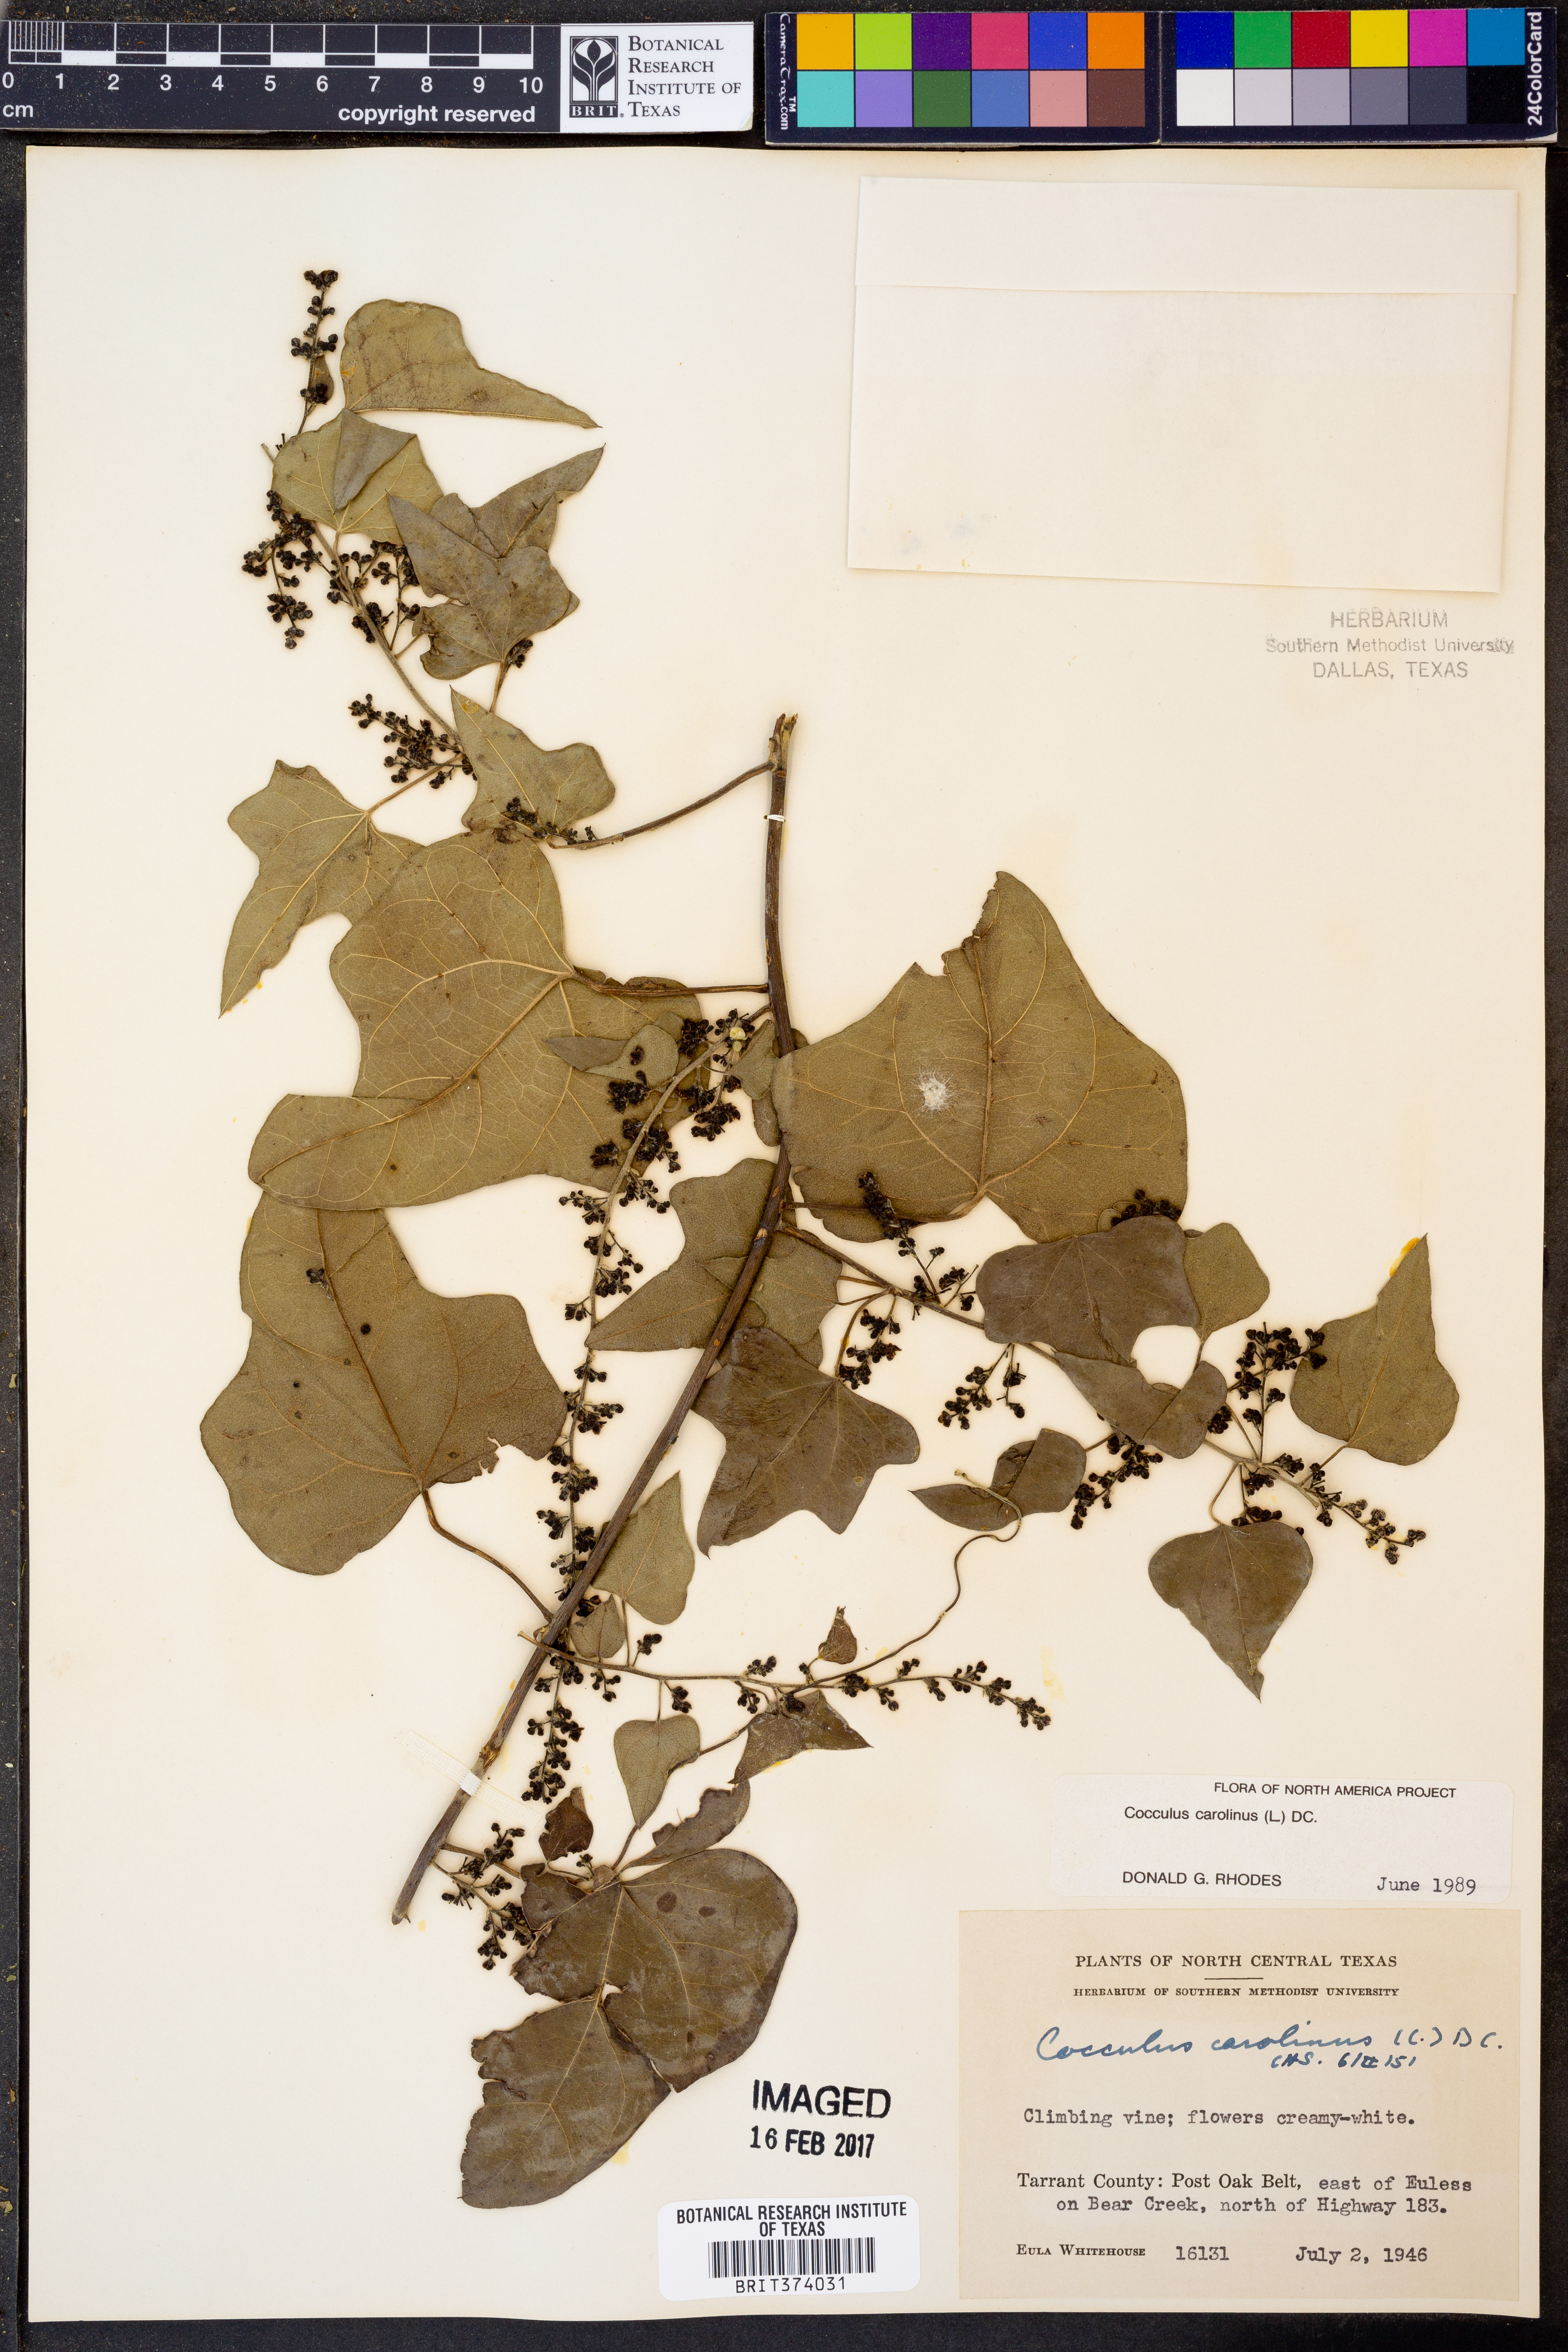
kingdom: Plantae
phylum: Tracheophyta
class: Magnoliopsida
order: Ranunculales
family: Menispermaceae
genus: Cocculus
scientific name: Cocculus carolinus
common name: Carolina moonseed
